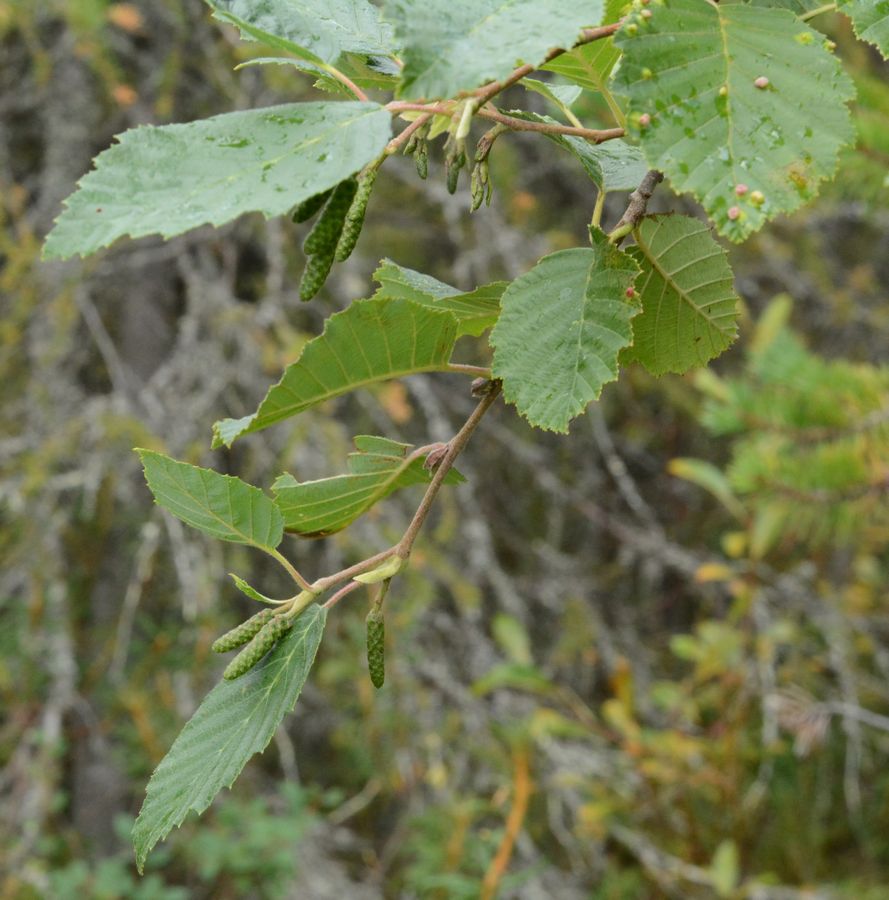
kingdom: Plantae
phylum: Tracheophyta
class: Magnoliopsida
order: Fagales
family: Betulaceae
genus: Alnus
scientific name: Alnus incana
